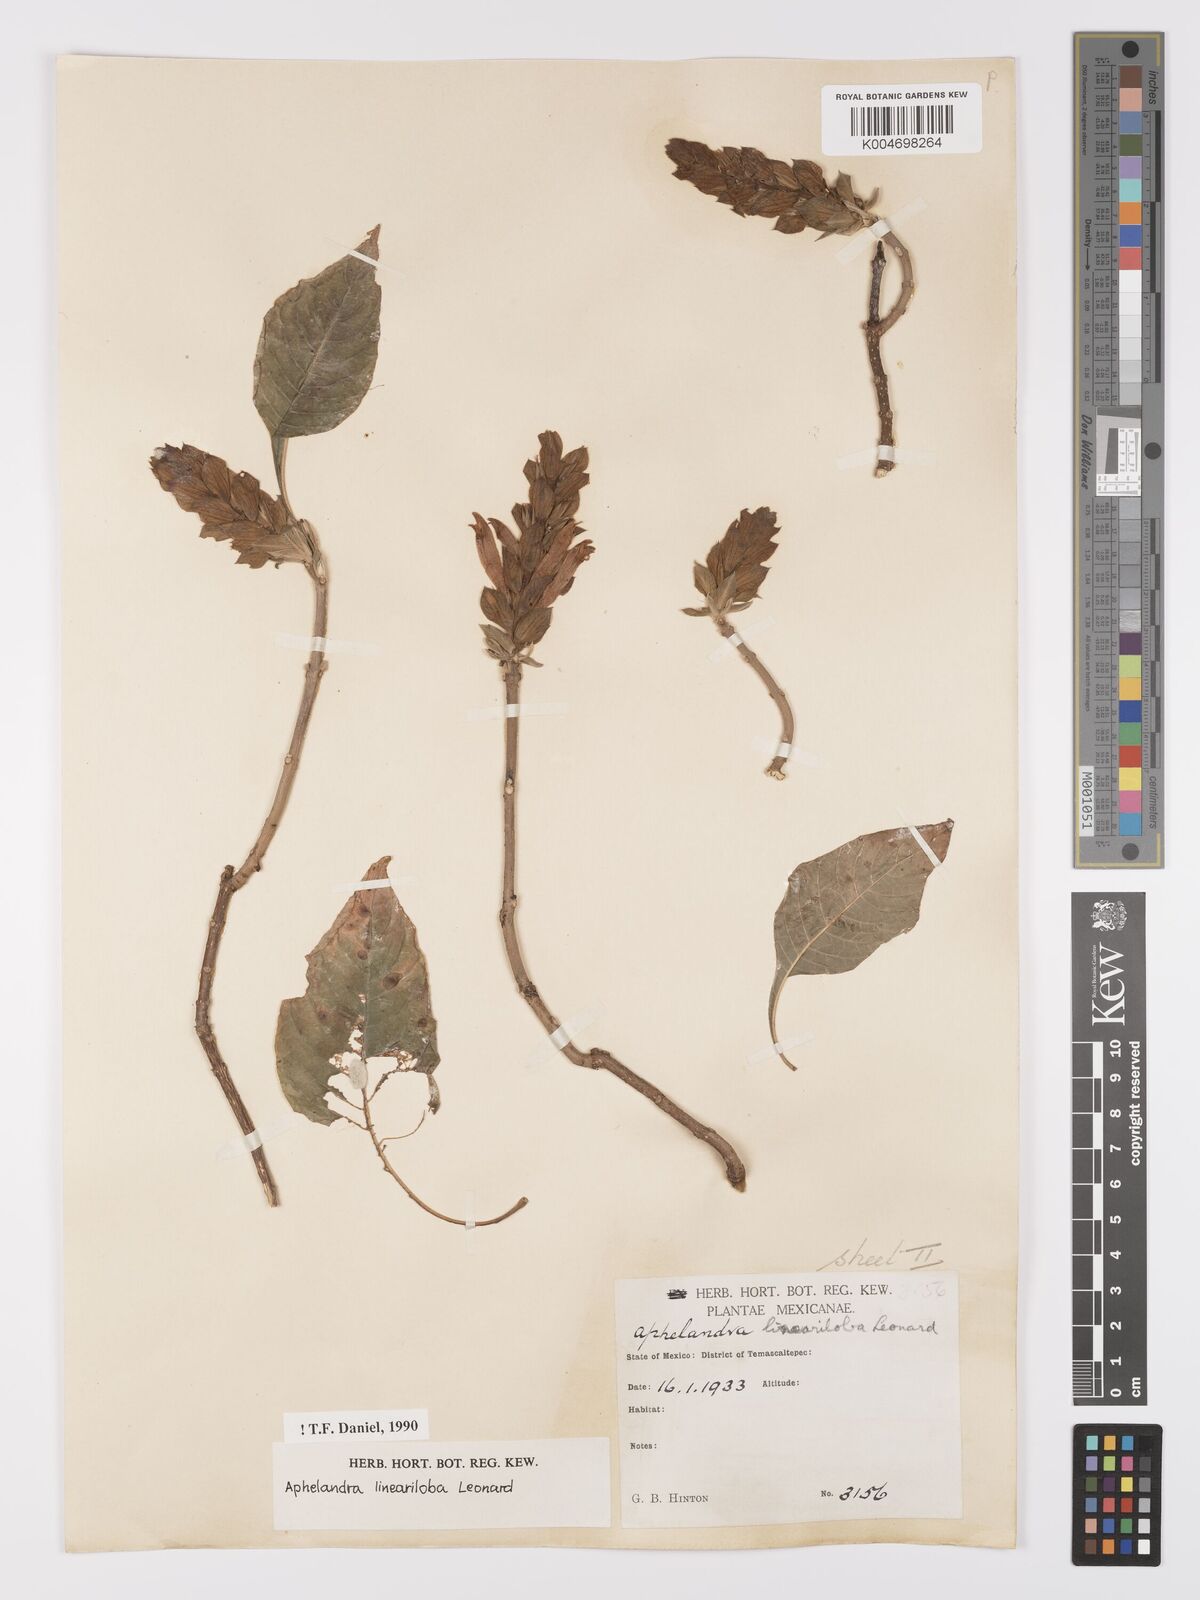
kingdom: Plantae
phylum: Tracheophyta
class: Magnoliopsida
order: Lamiales
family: Acanthaceae
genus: Aphelandra
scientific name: Aphelandra lineariloba
